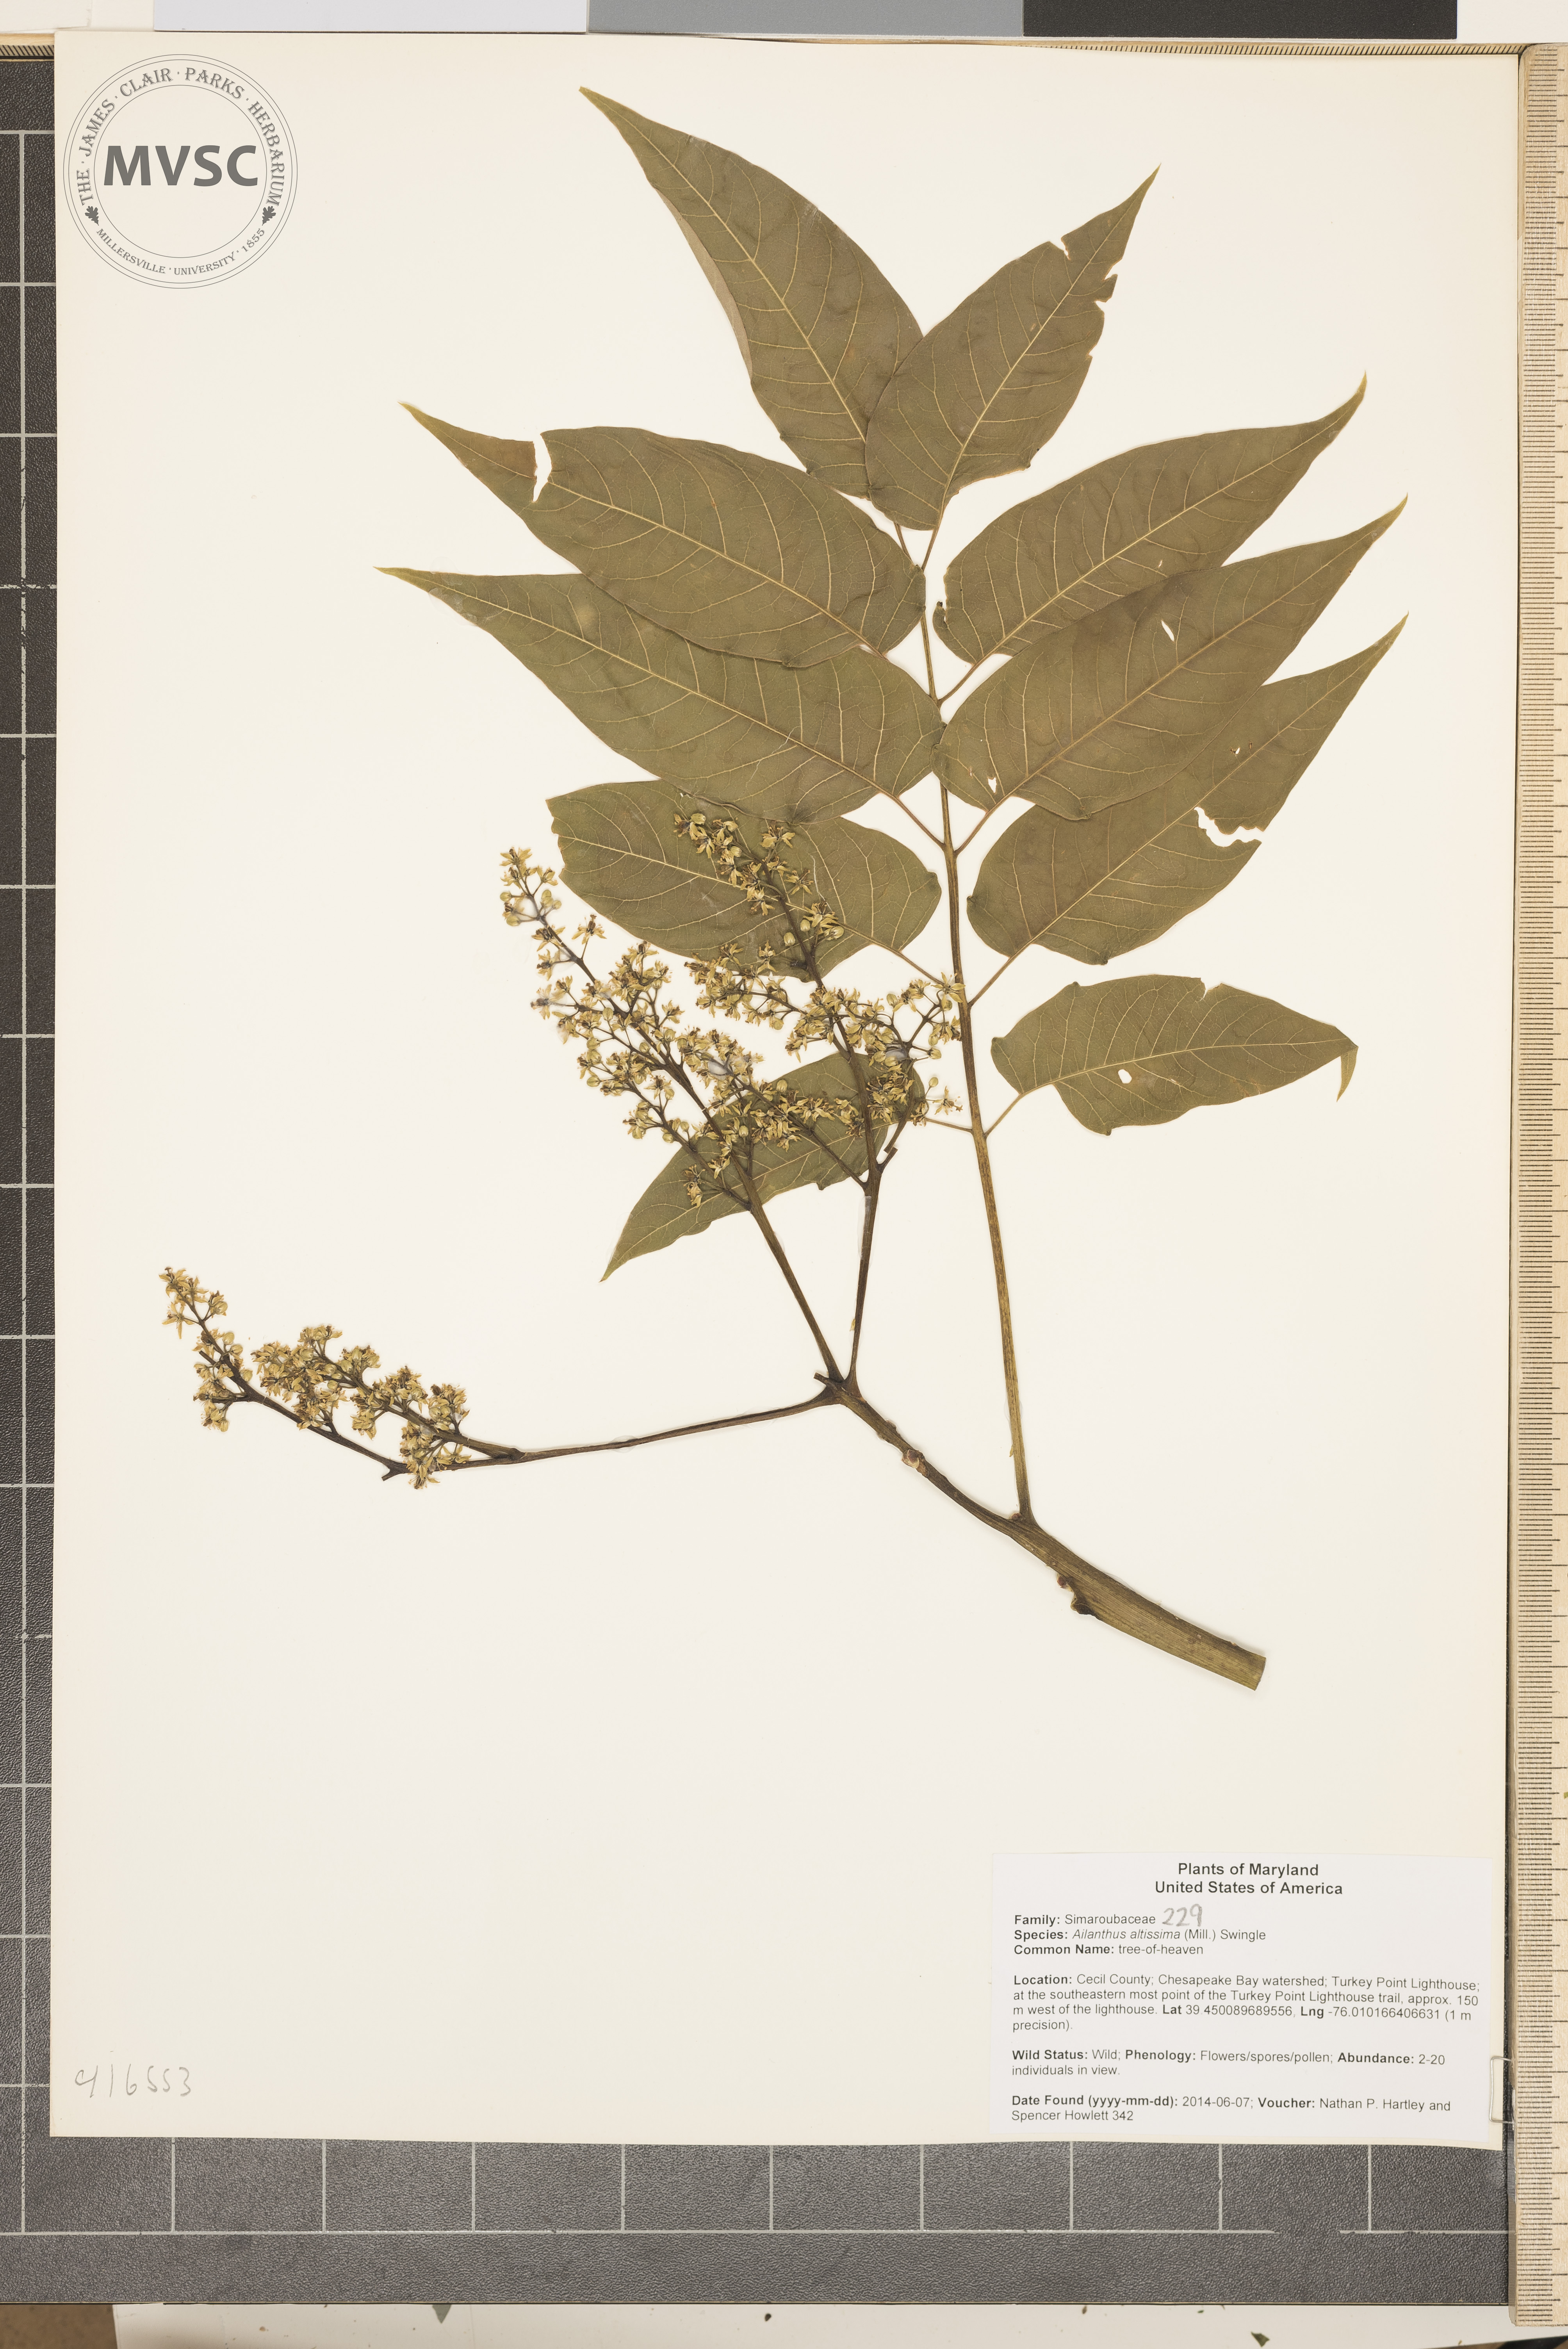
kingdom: Plantae
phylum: Tracheophyta
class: Magnoliopsida
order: Sapindales
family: Simaroubaceae
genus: Ailanthus
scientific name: Ailanthus altissima
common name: tree-of-heaven
